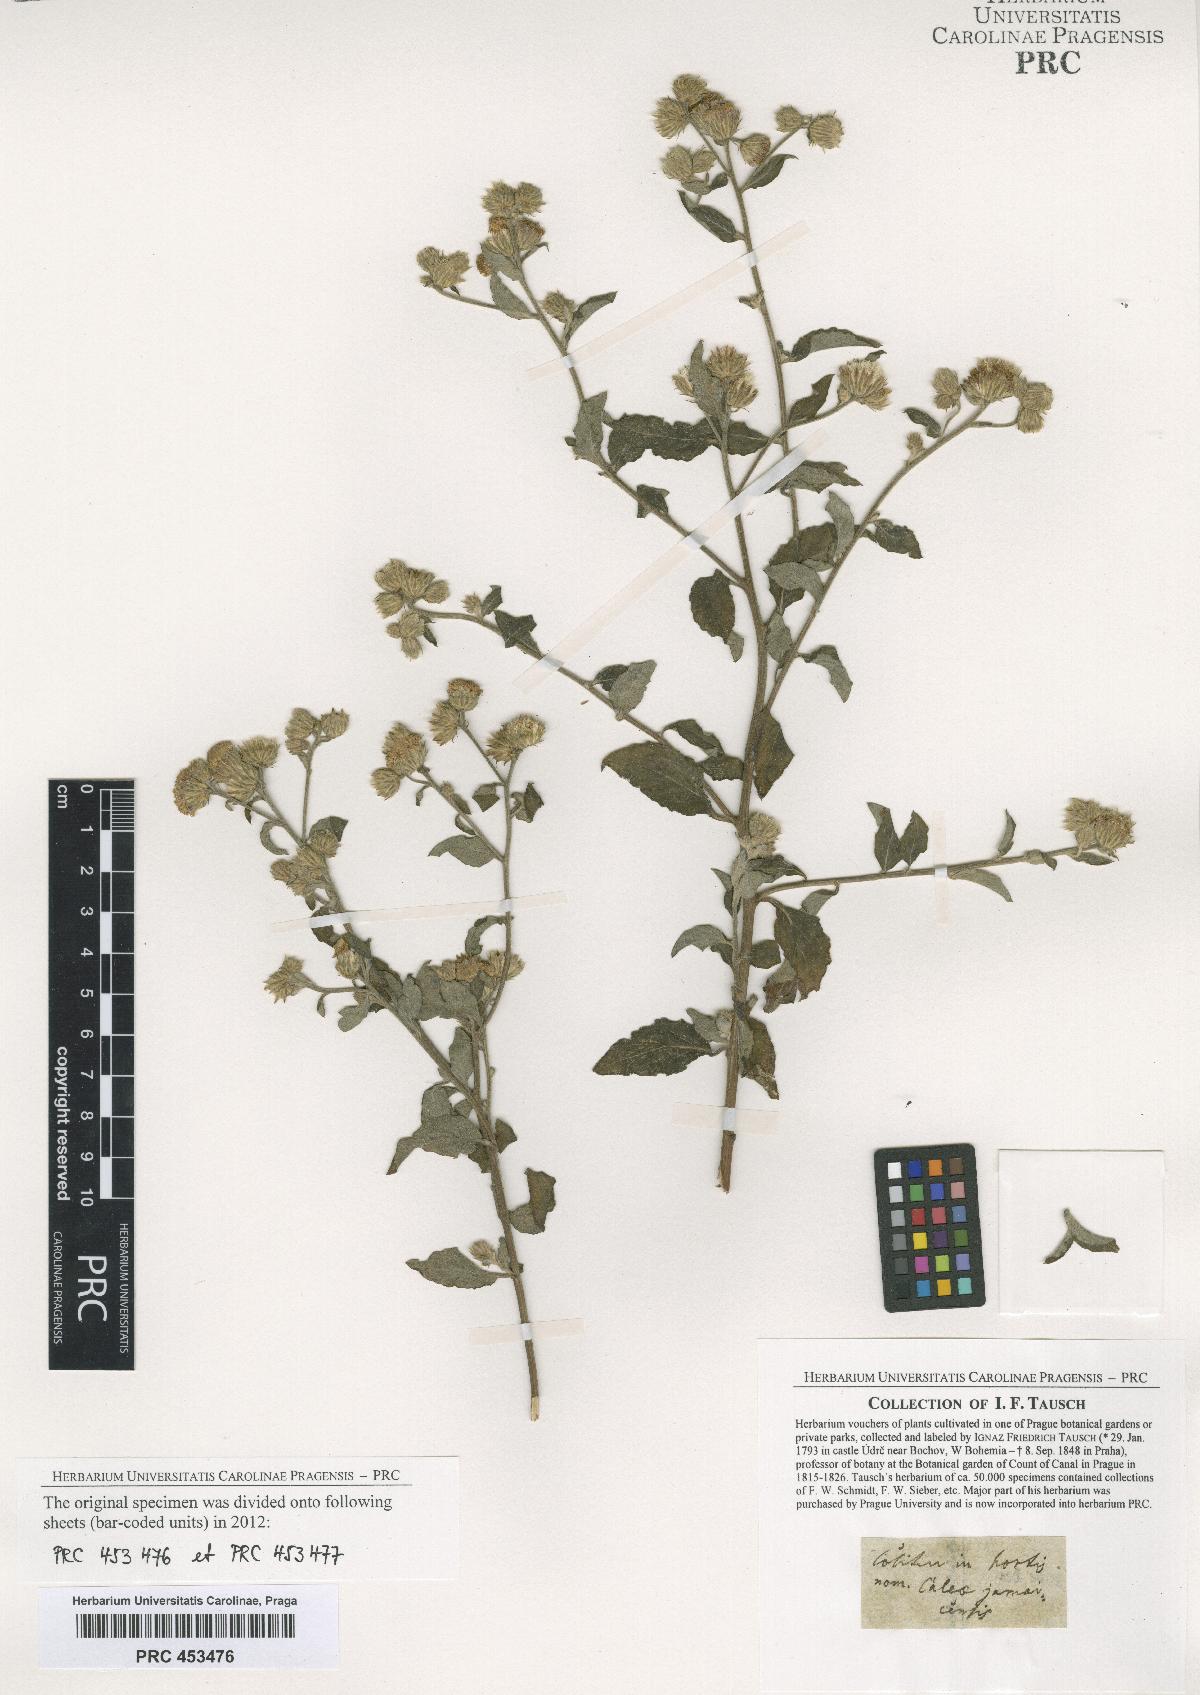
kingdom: Plantae
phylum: Tracheophyta
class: Magnoliopsida
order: Asterales
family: Asteraceae
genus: Vernonia
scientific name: Vernonia
